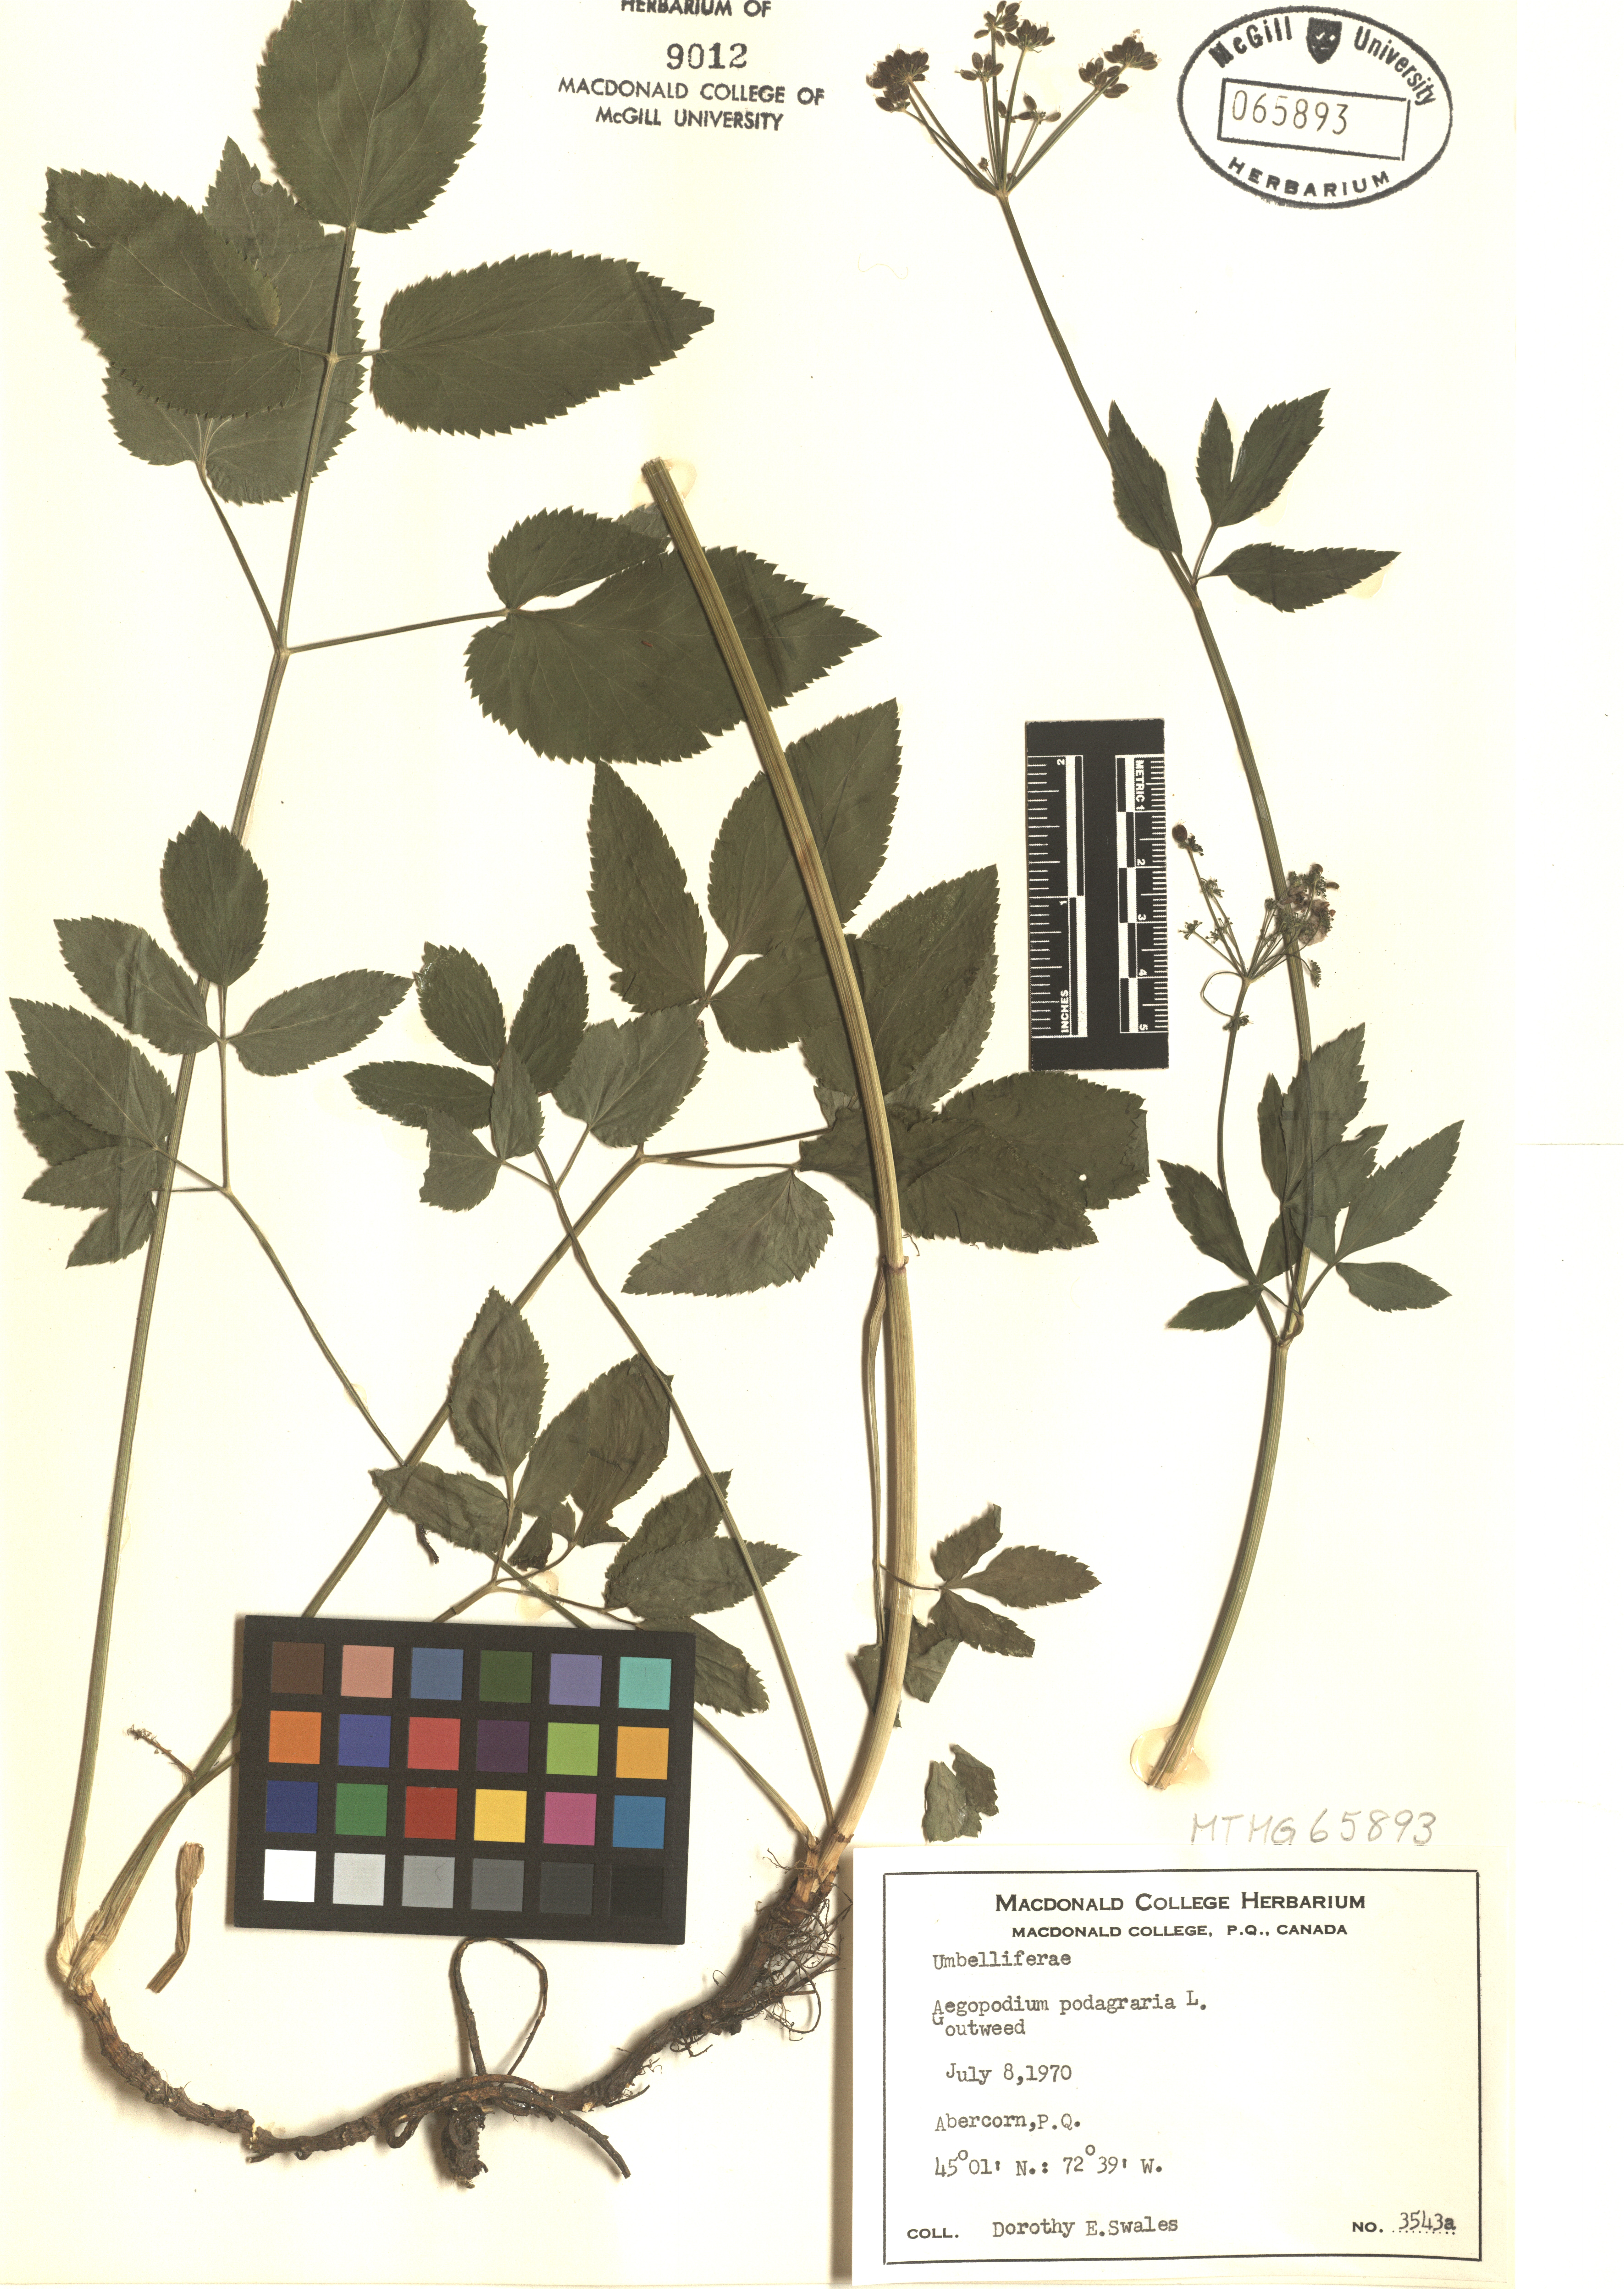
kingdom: Plantae
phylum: Tracheophyta
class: Magnoliopsida
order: Apiales
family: Apiaceae
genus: Aegopodium
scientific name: Aegopodium podagraria
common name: Ground-elder
